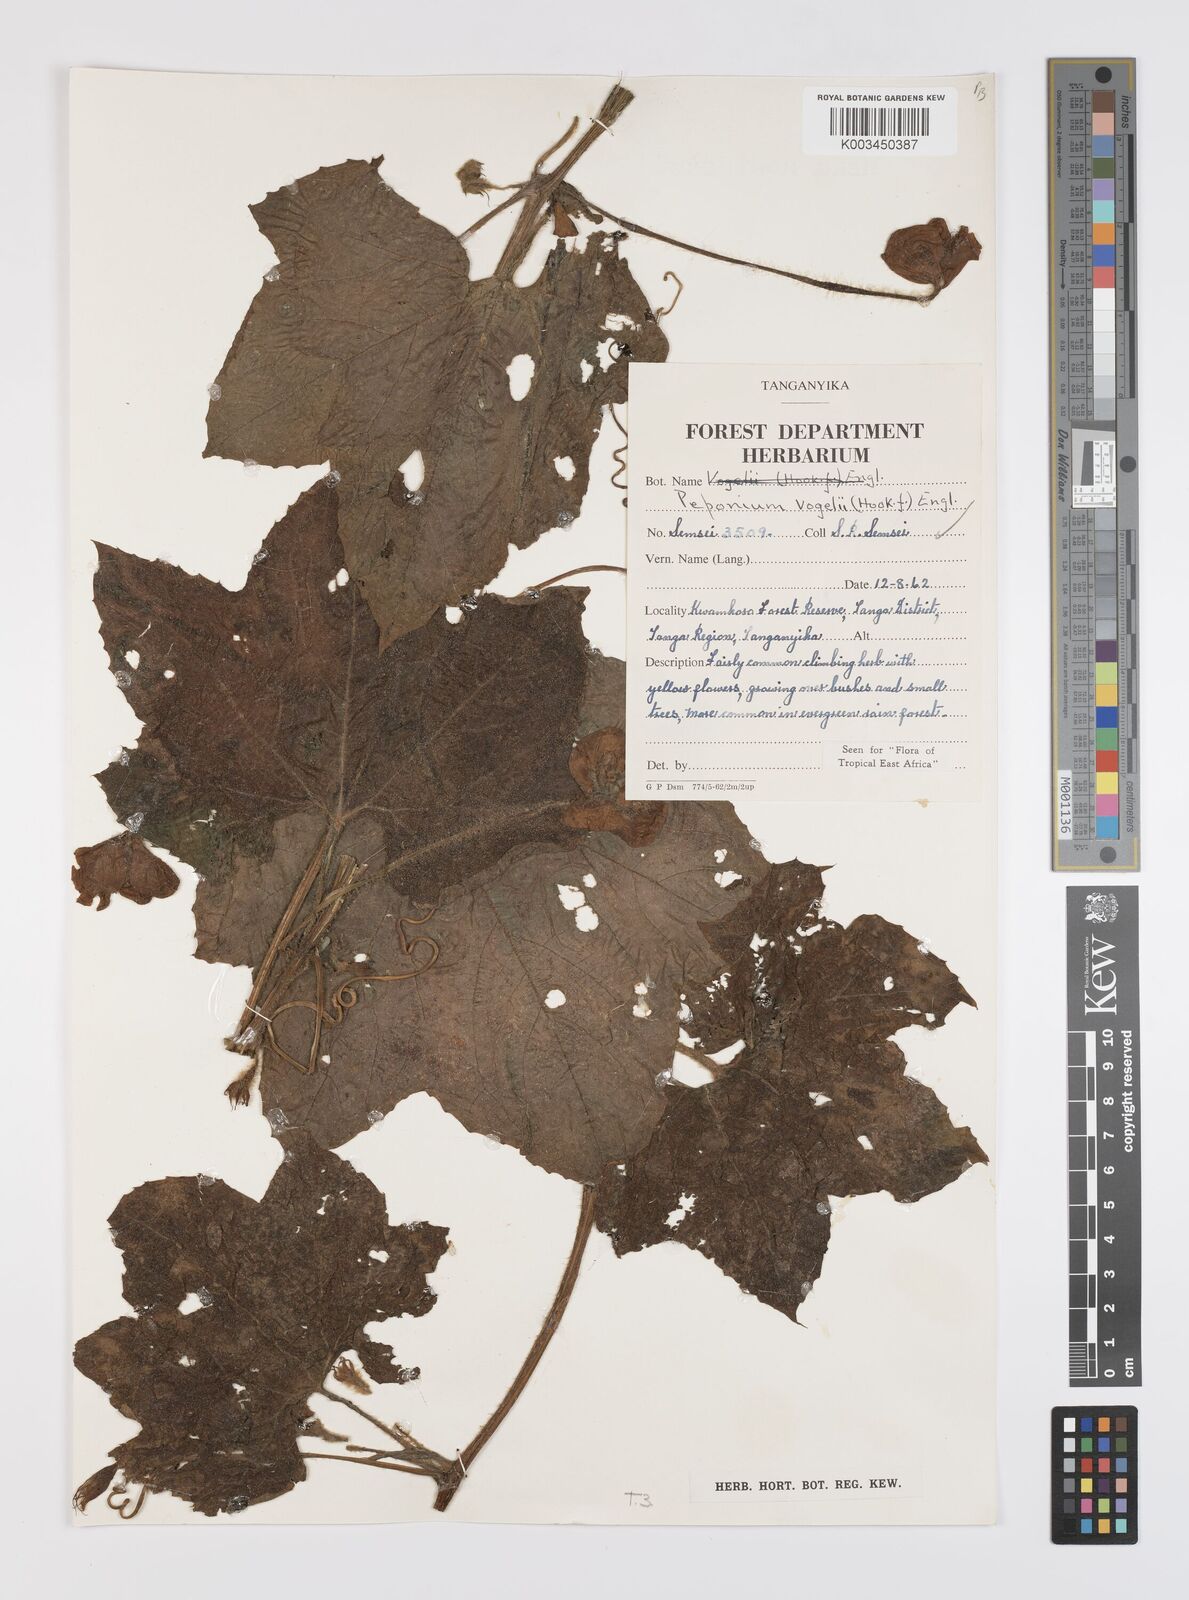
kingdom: Plantae
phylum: Tracheophyta
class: Magnoliopsida
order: Cucurbitales
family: Cucurbitaceae
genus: Peponium
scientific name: Peponium vogelii
